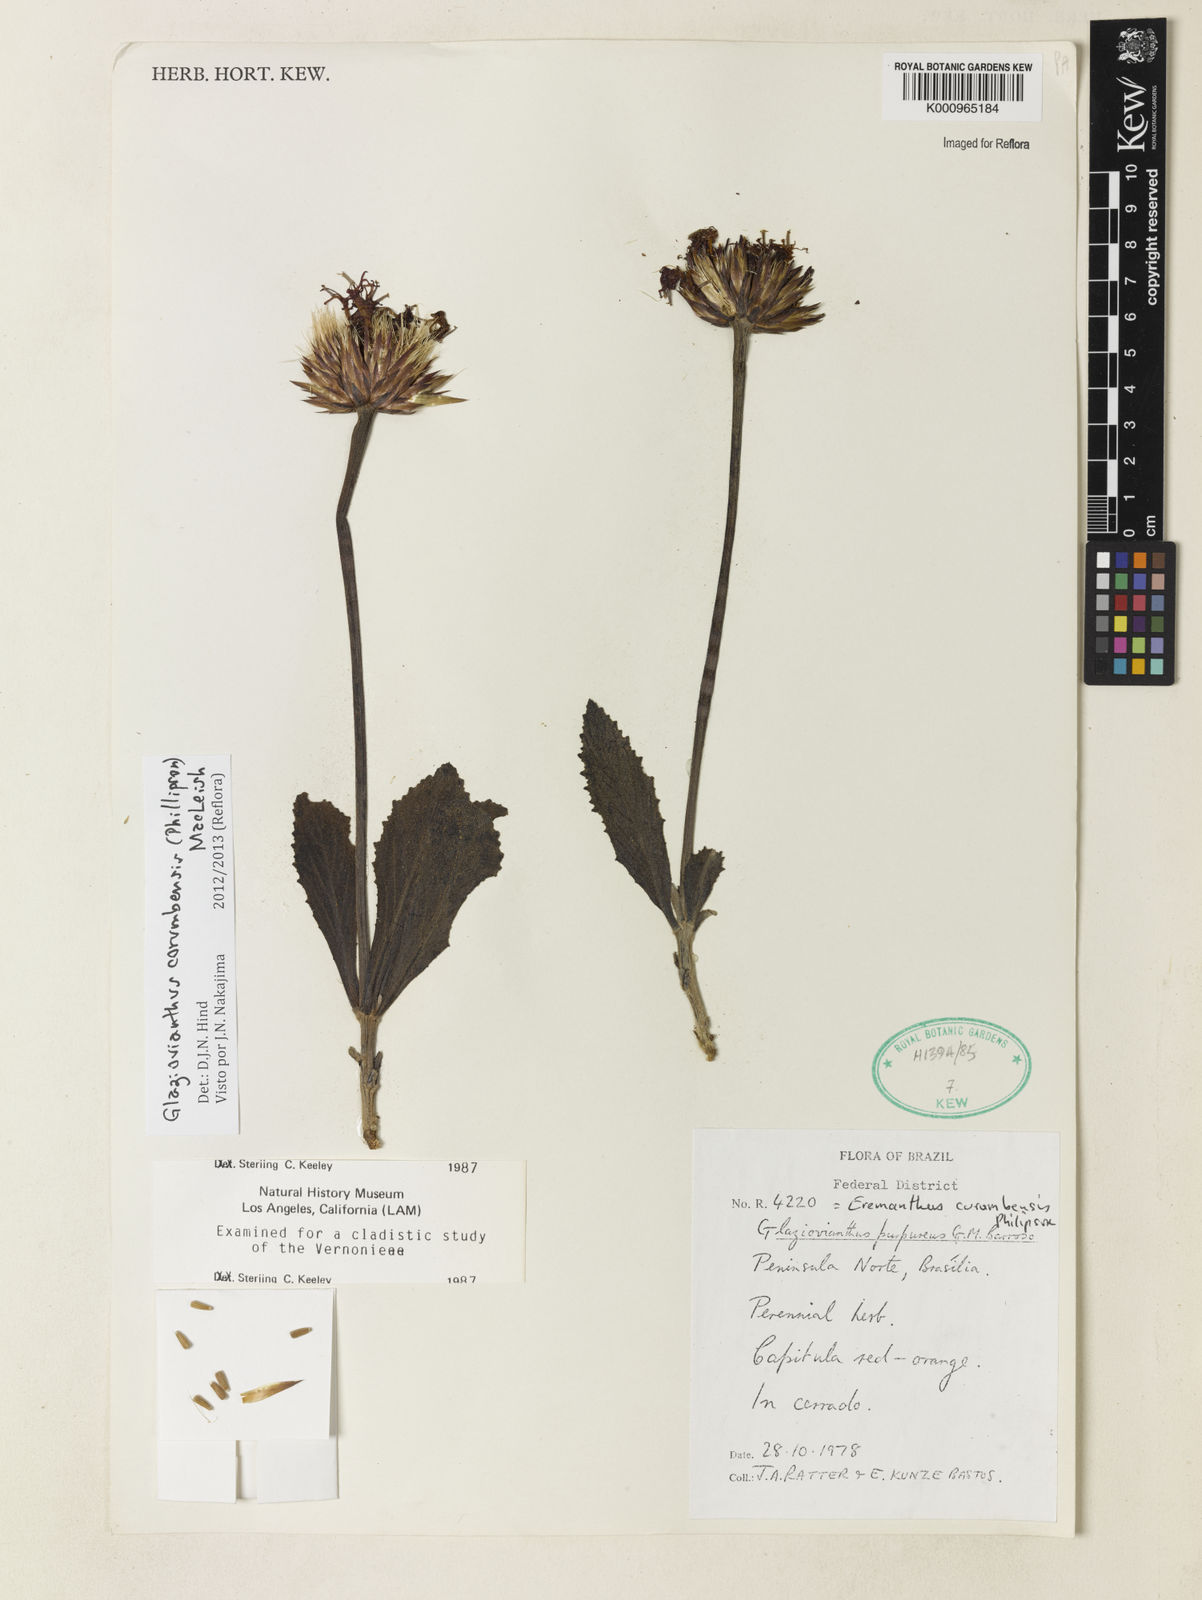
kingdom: Plantae
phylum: Tracheophyta
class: Magnoliopsida
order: Asterales
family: Asteraceae
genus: Chresta
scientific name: Chresta curumbensis
